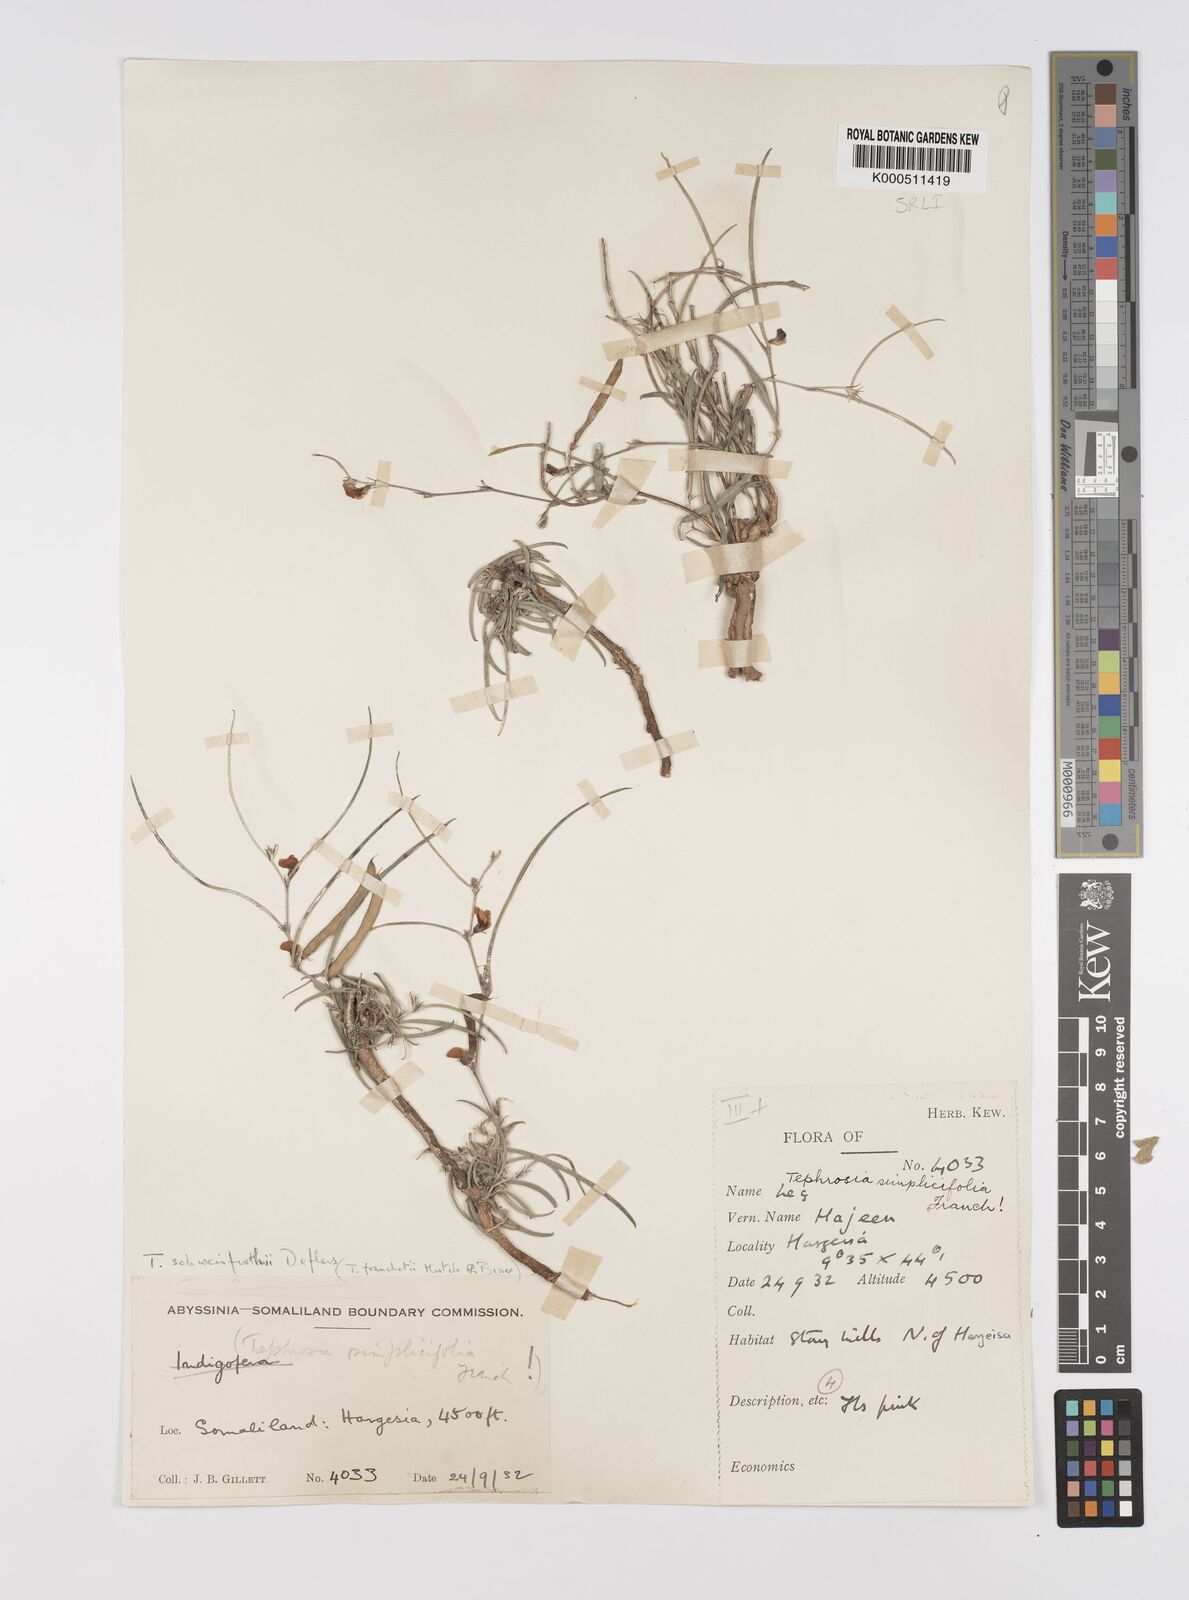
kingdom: Plantae
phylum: Tracheophyta
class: Magnoliopsida
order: Fabales
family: Fabaceae
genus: Tephrosia
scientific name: Tephrosia heterophylla
